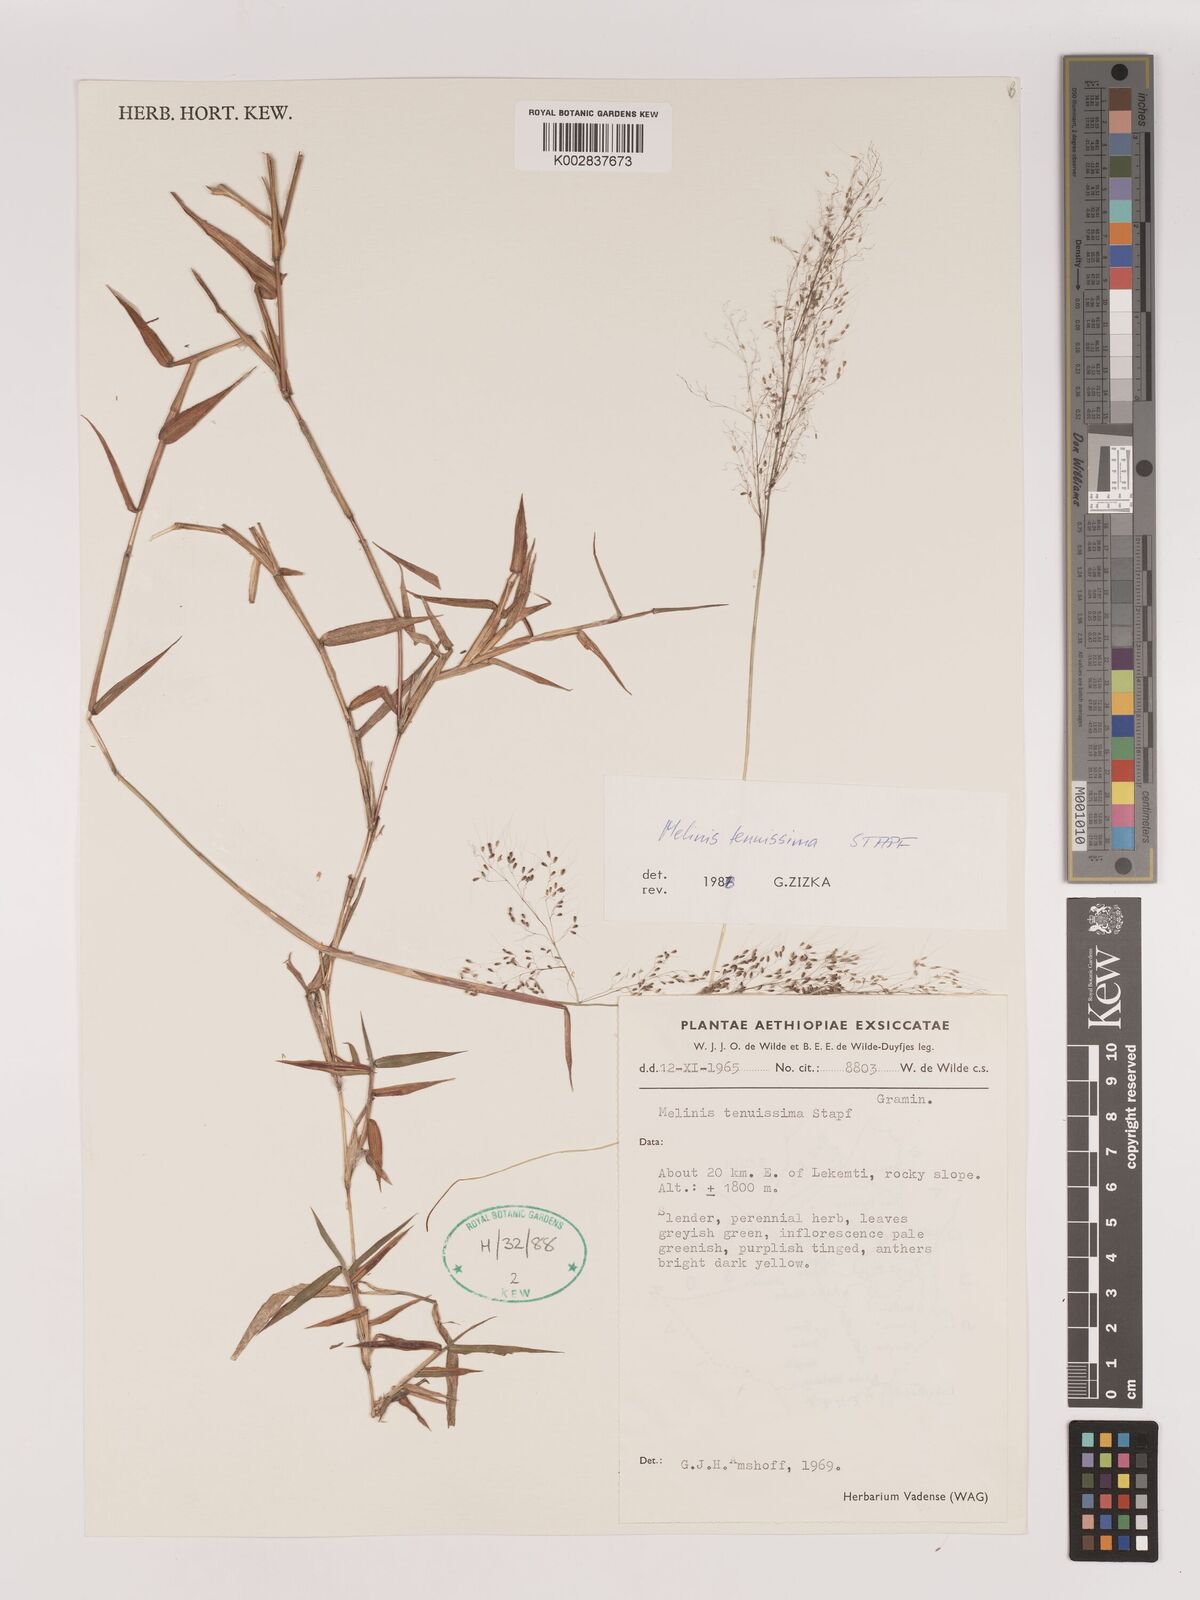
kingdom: Plantae
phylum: Tracheophyta
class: Liliopsida
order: Poales
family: Poaceae
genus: Melinis
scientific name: Melinis tenuissima
